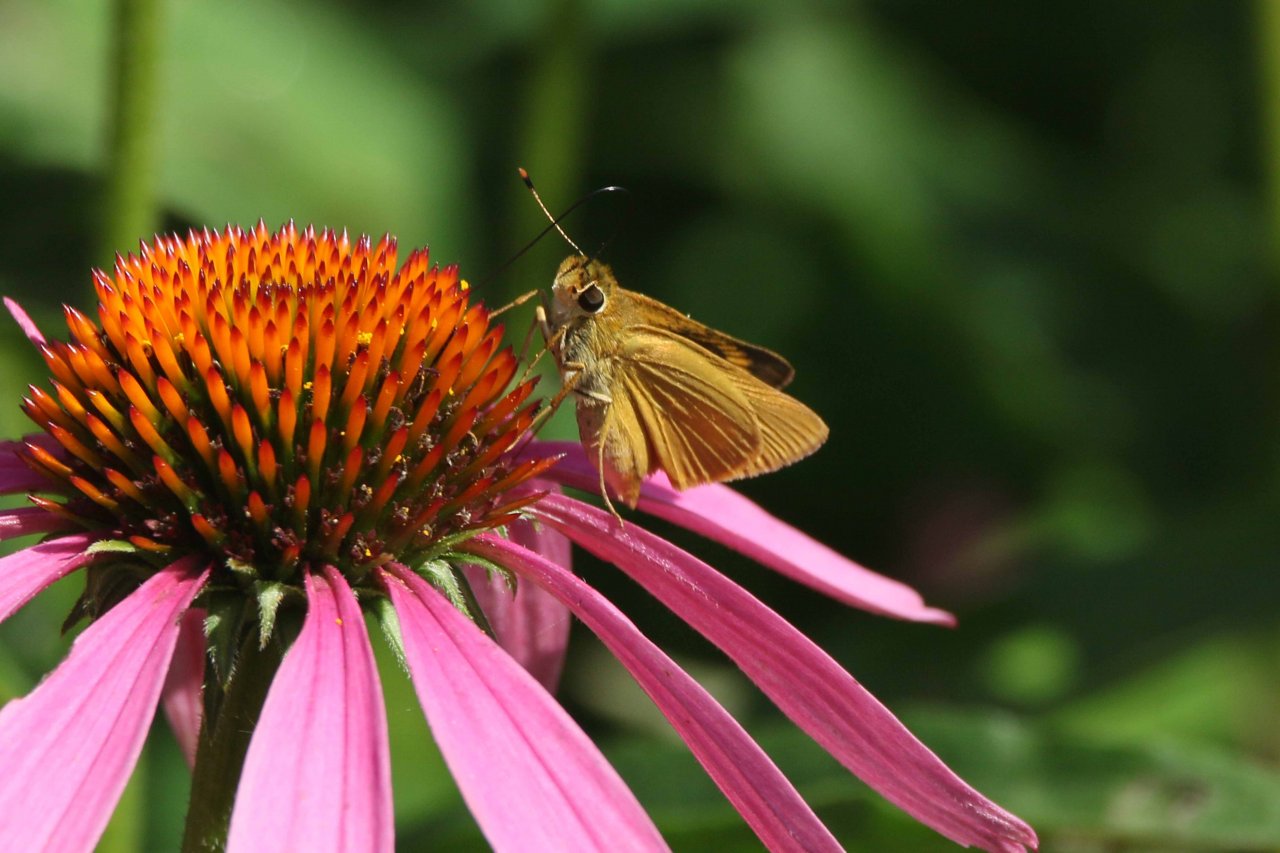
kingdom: Animalia
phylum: Arthropoda
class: Insecta
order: Lepidoptera
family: Hesperiidae
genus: Atrytone
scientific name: Atrytone delaware
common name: Delaware Skipper
